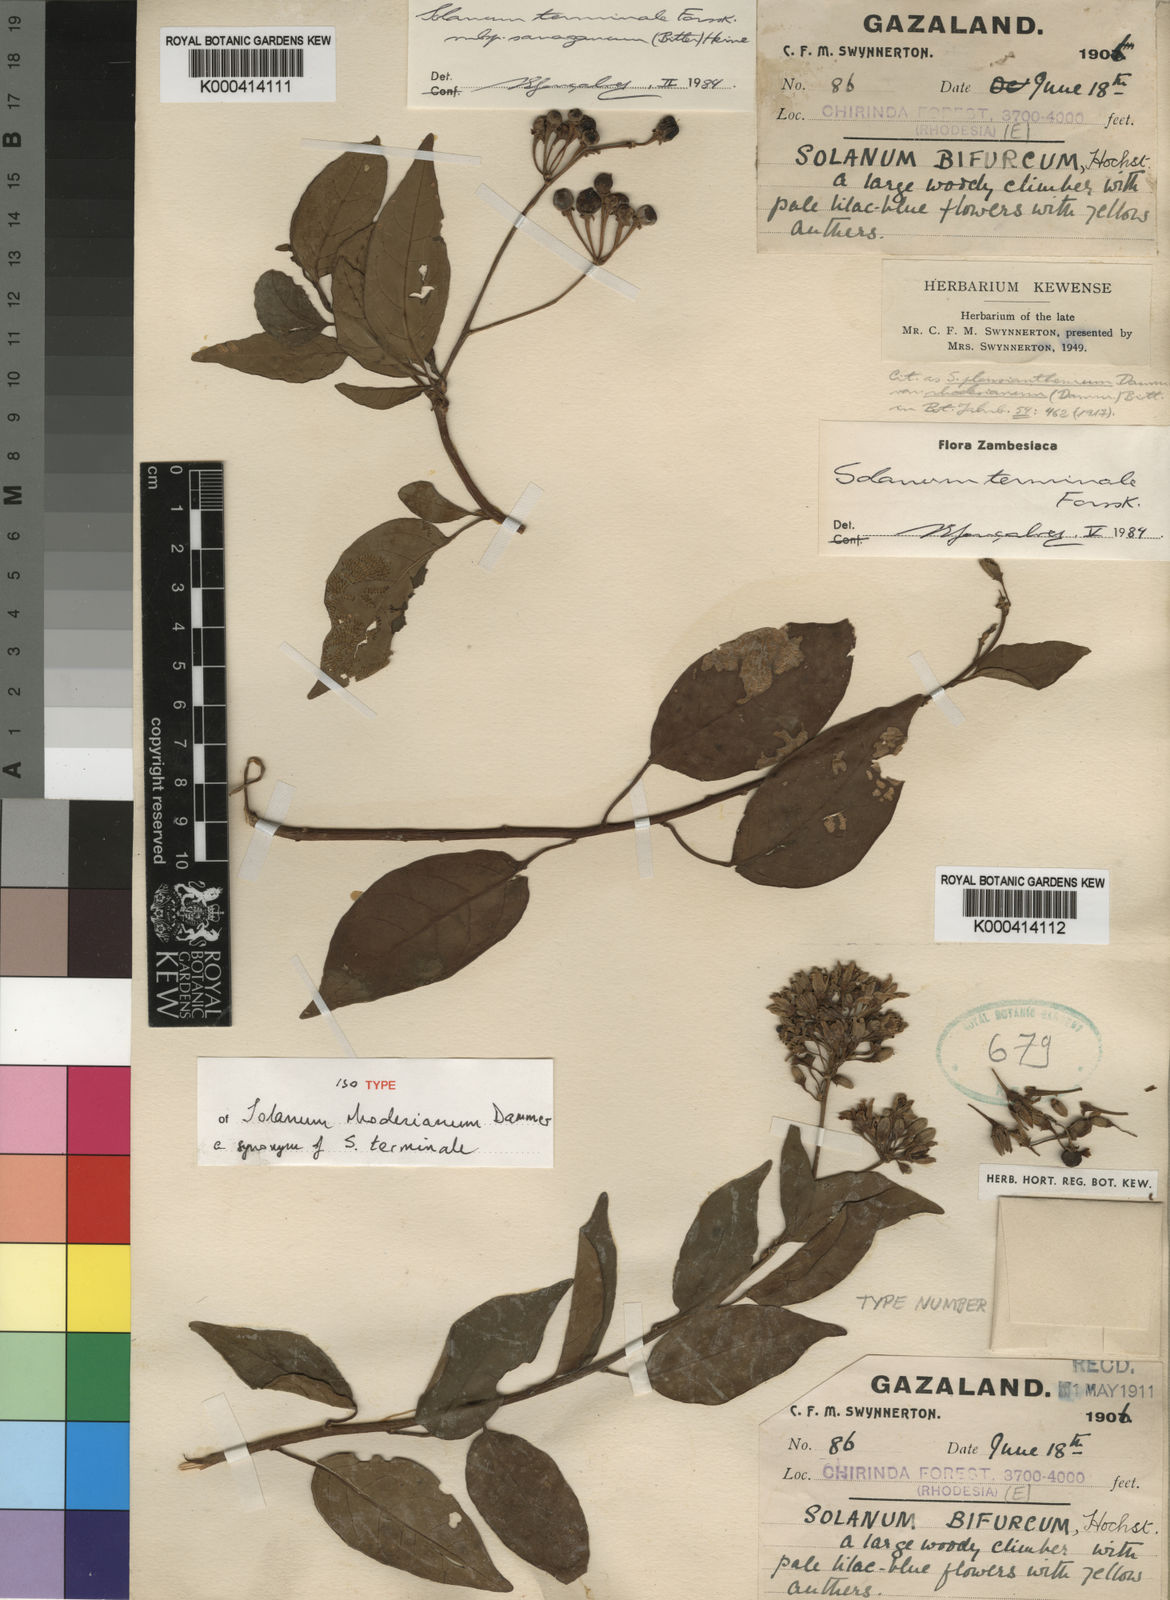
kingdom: Plantae
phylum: Tracheophyta
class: Magnoliopsida
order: Solanales
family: Solanaceae
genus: Solanum
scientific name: Solanum terminale
